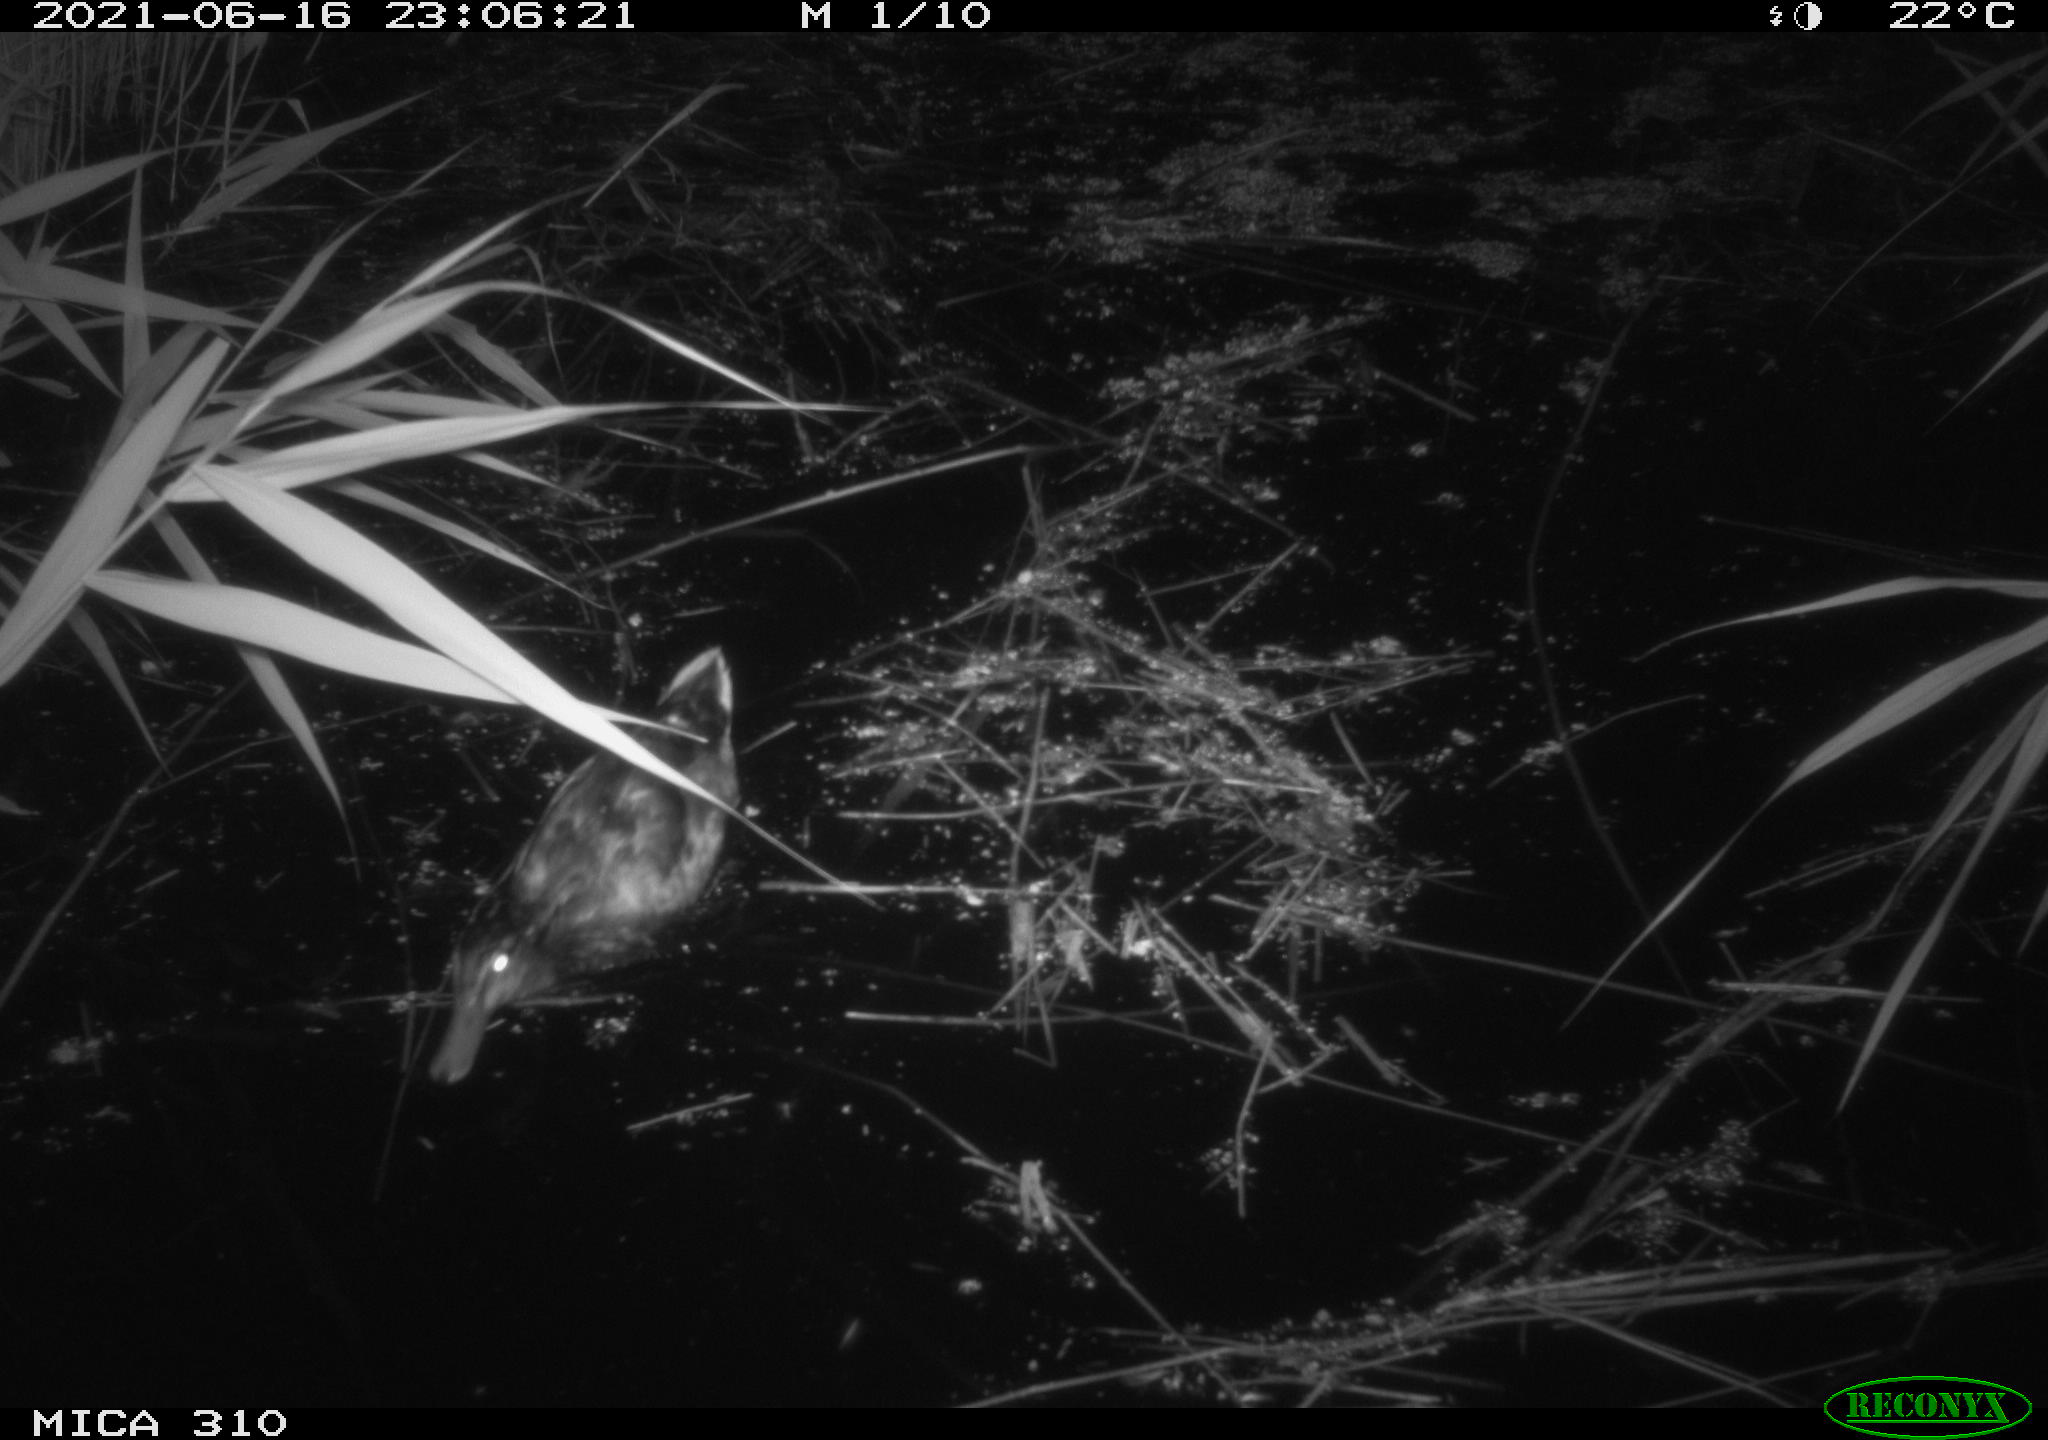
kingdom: Animalia
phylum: Chordata
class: Aves
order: Anseriformes
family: Anatidae
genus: Anas
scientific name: Anas
